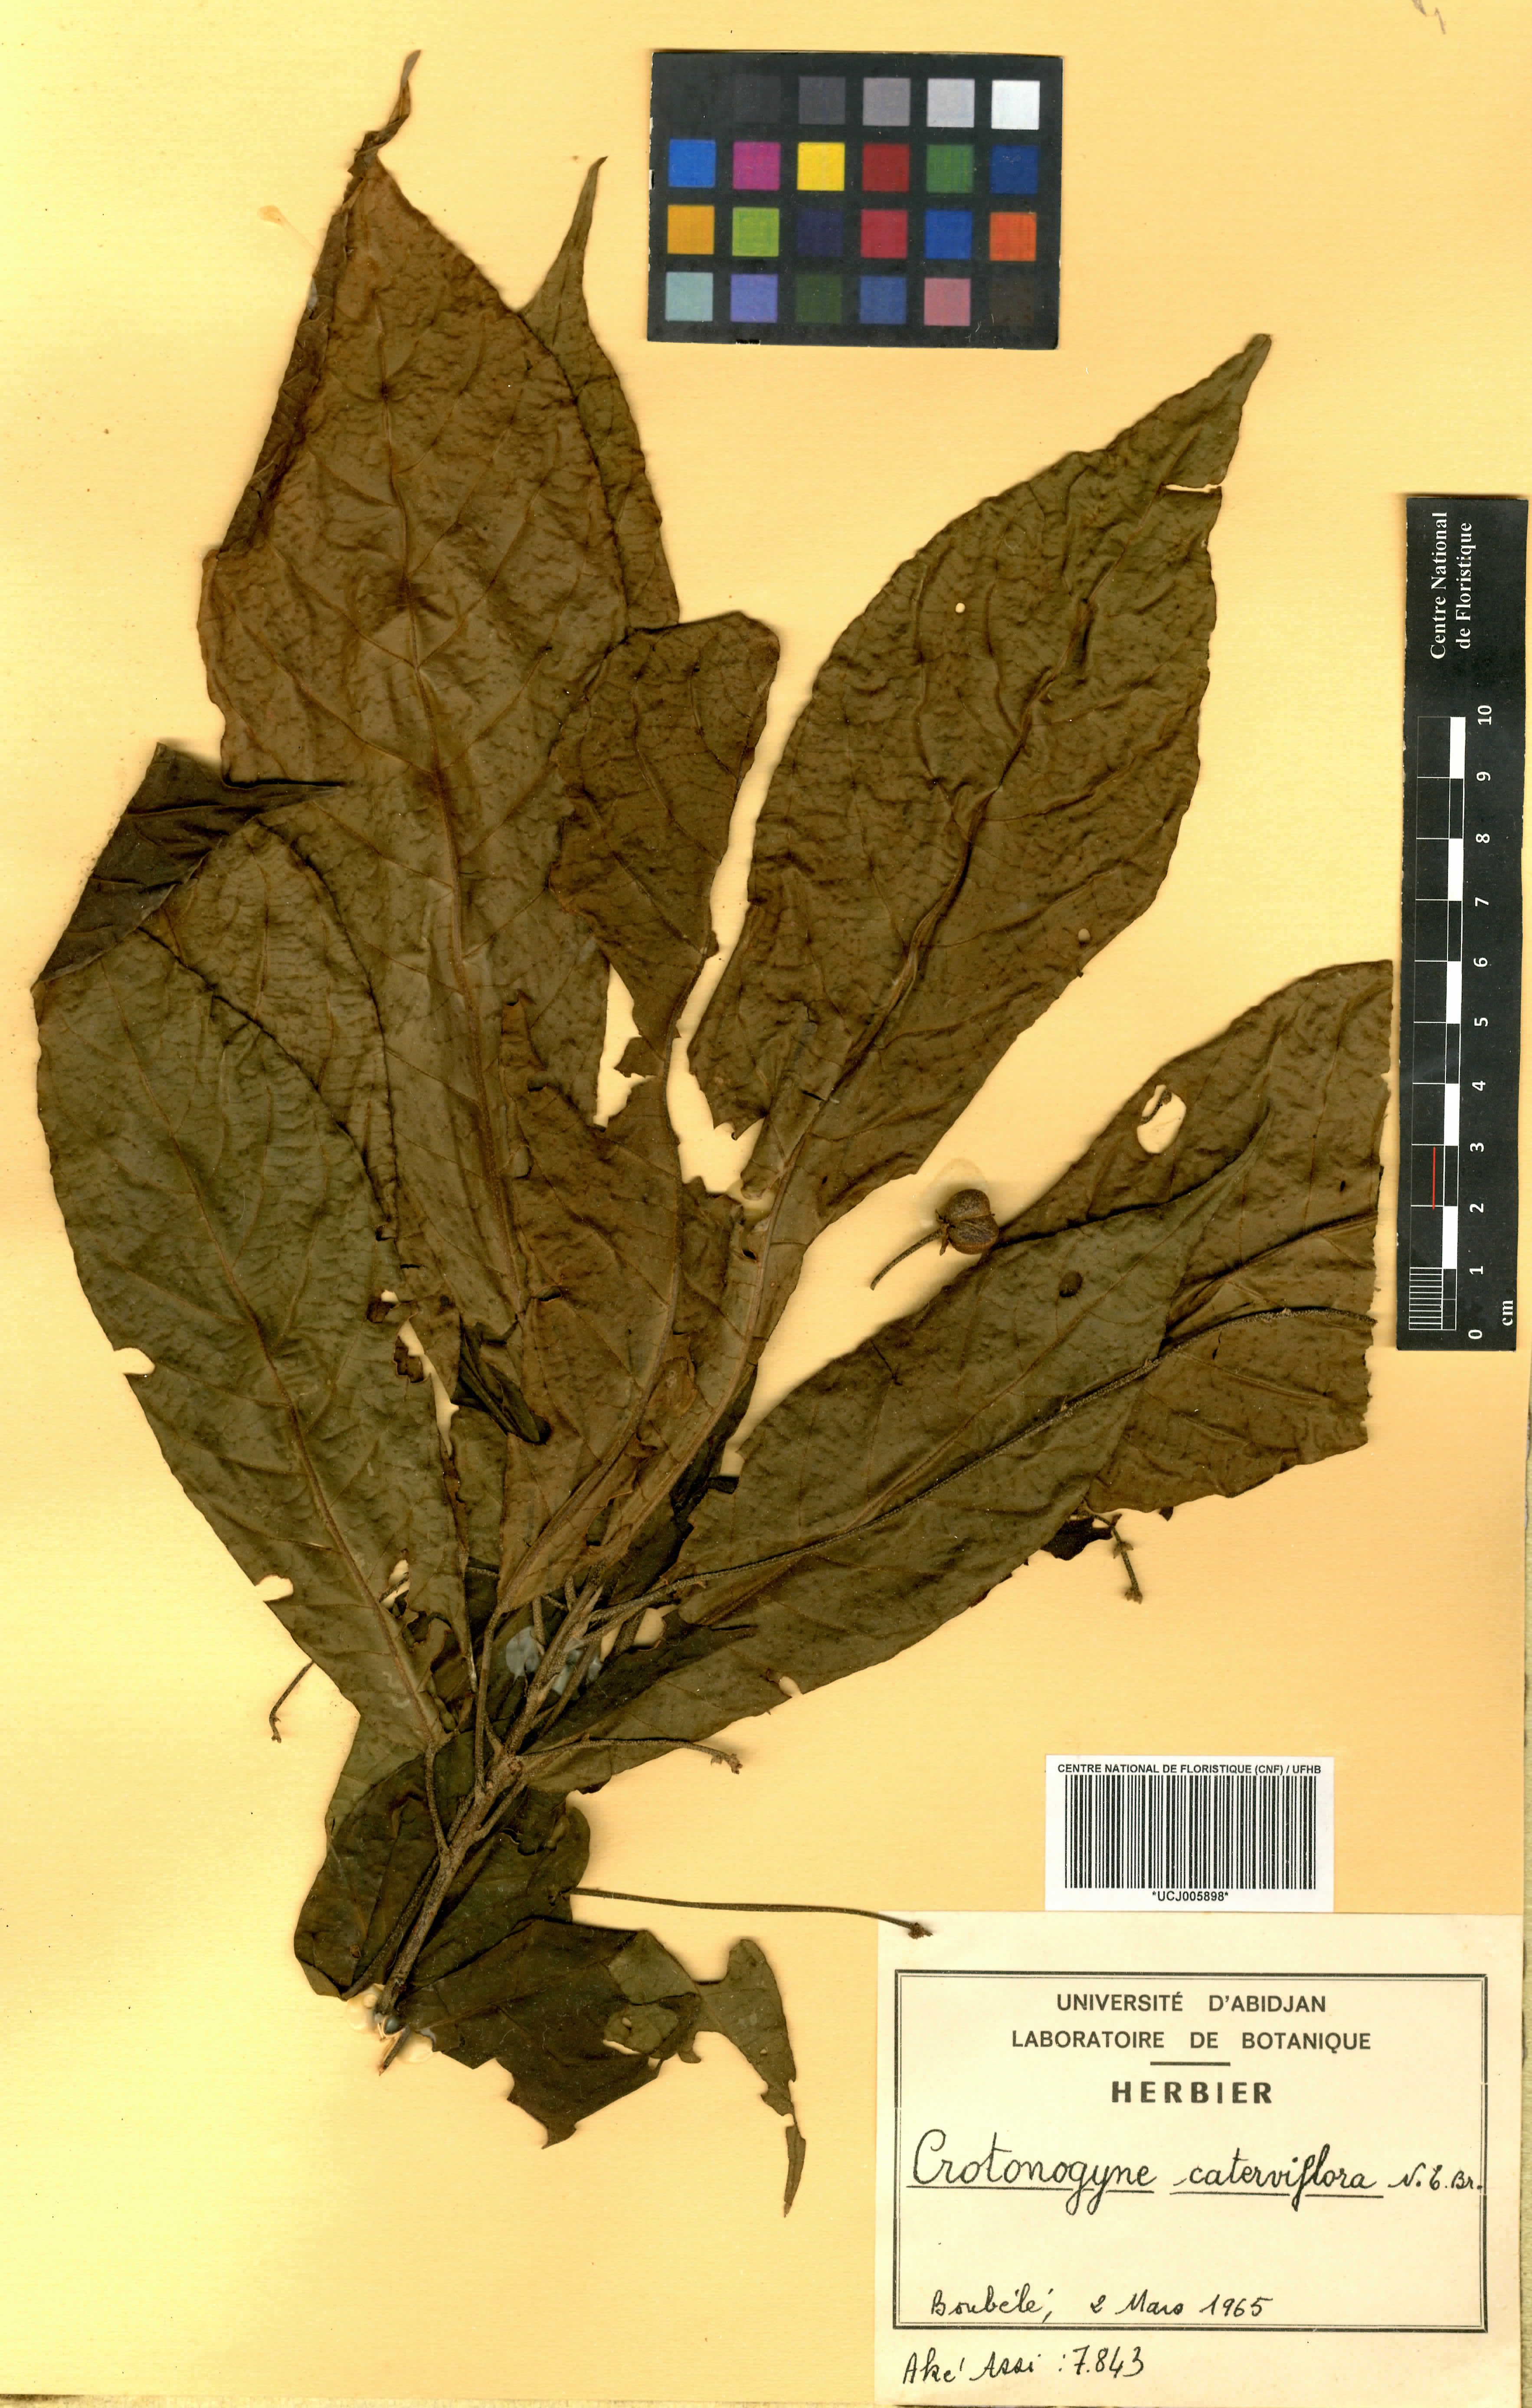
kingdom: Plantae
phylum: Tracheophyta
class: Magnoliopsida
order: Malpighiales
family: Euphorbiaceae
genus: Crotonogyne
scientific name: Crotonogyne caterviflora
